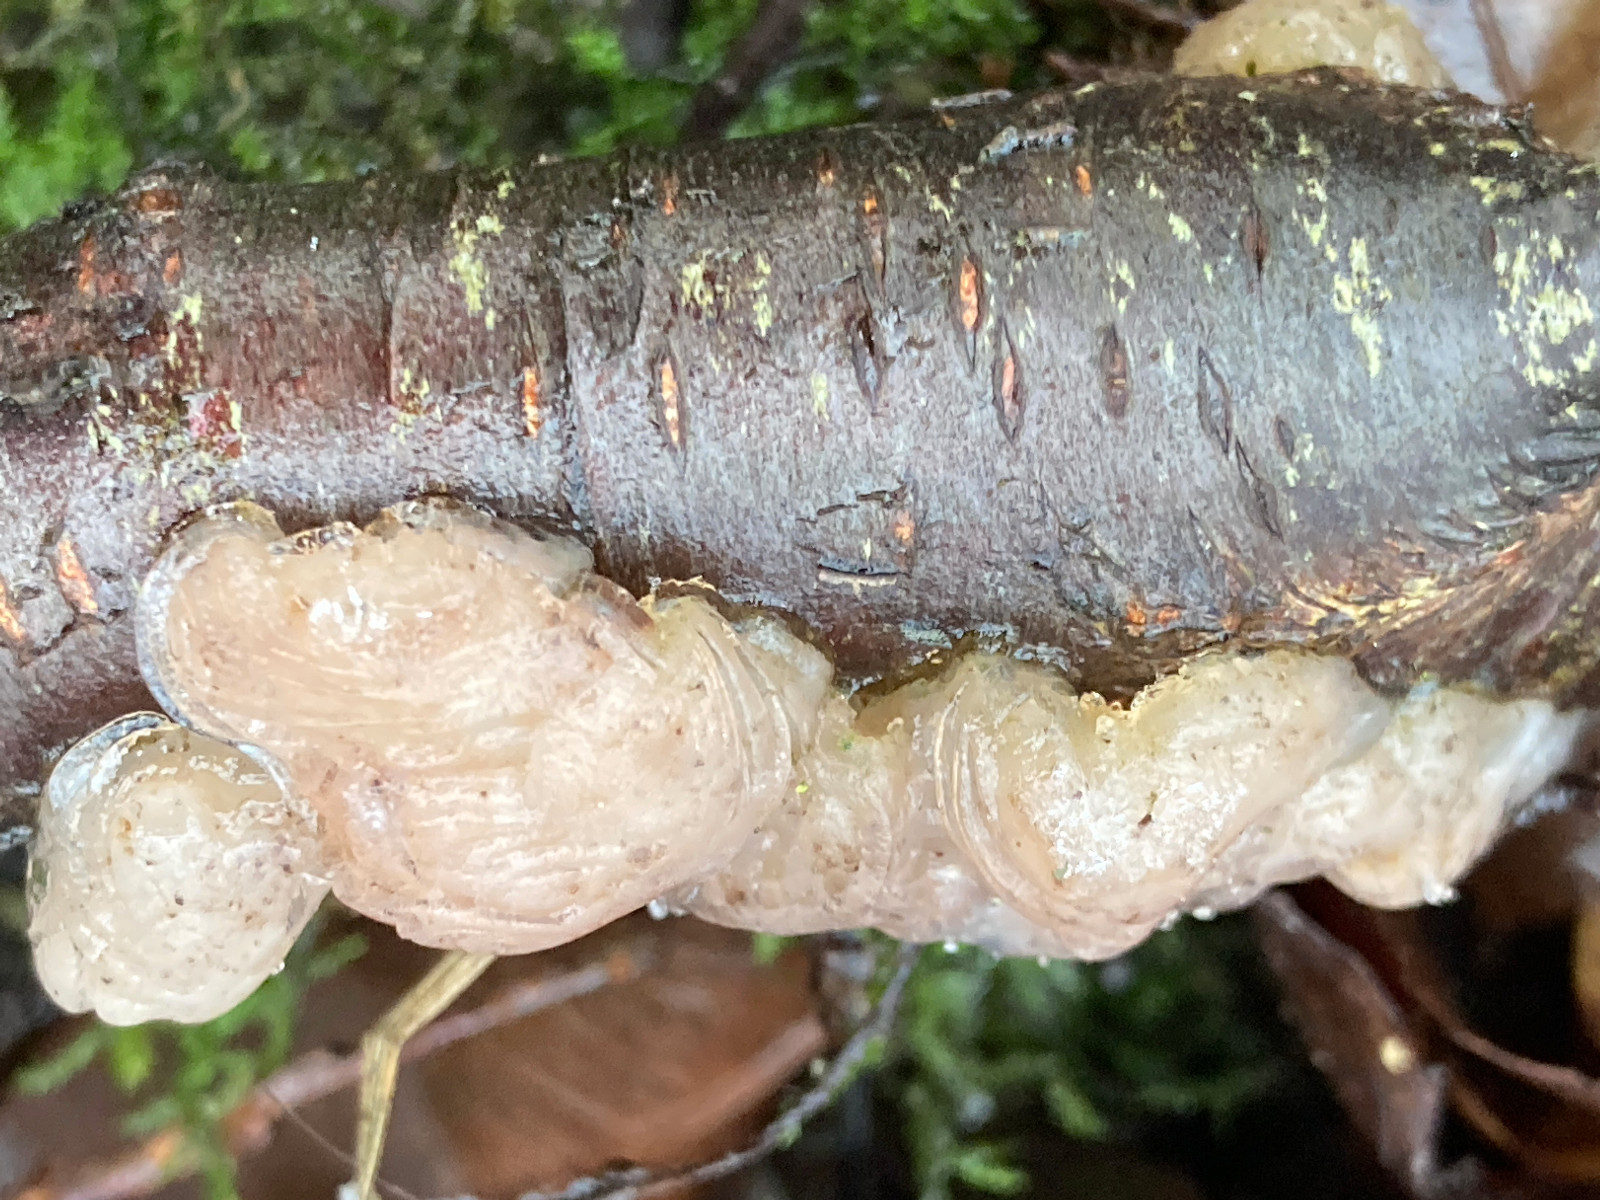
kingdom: Fungi
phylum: Basidiomycota
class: Tremellomycetes
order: Tremellales
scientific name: Tremellales
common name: bævresvampordenen
